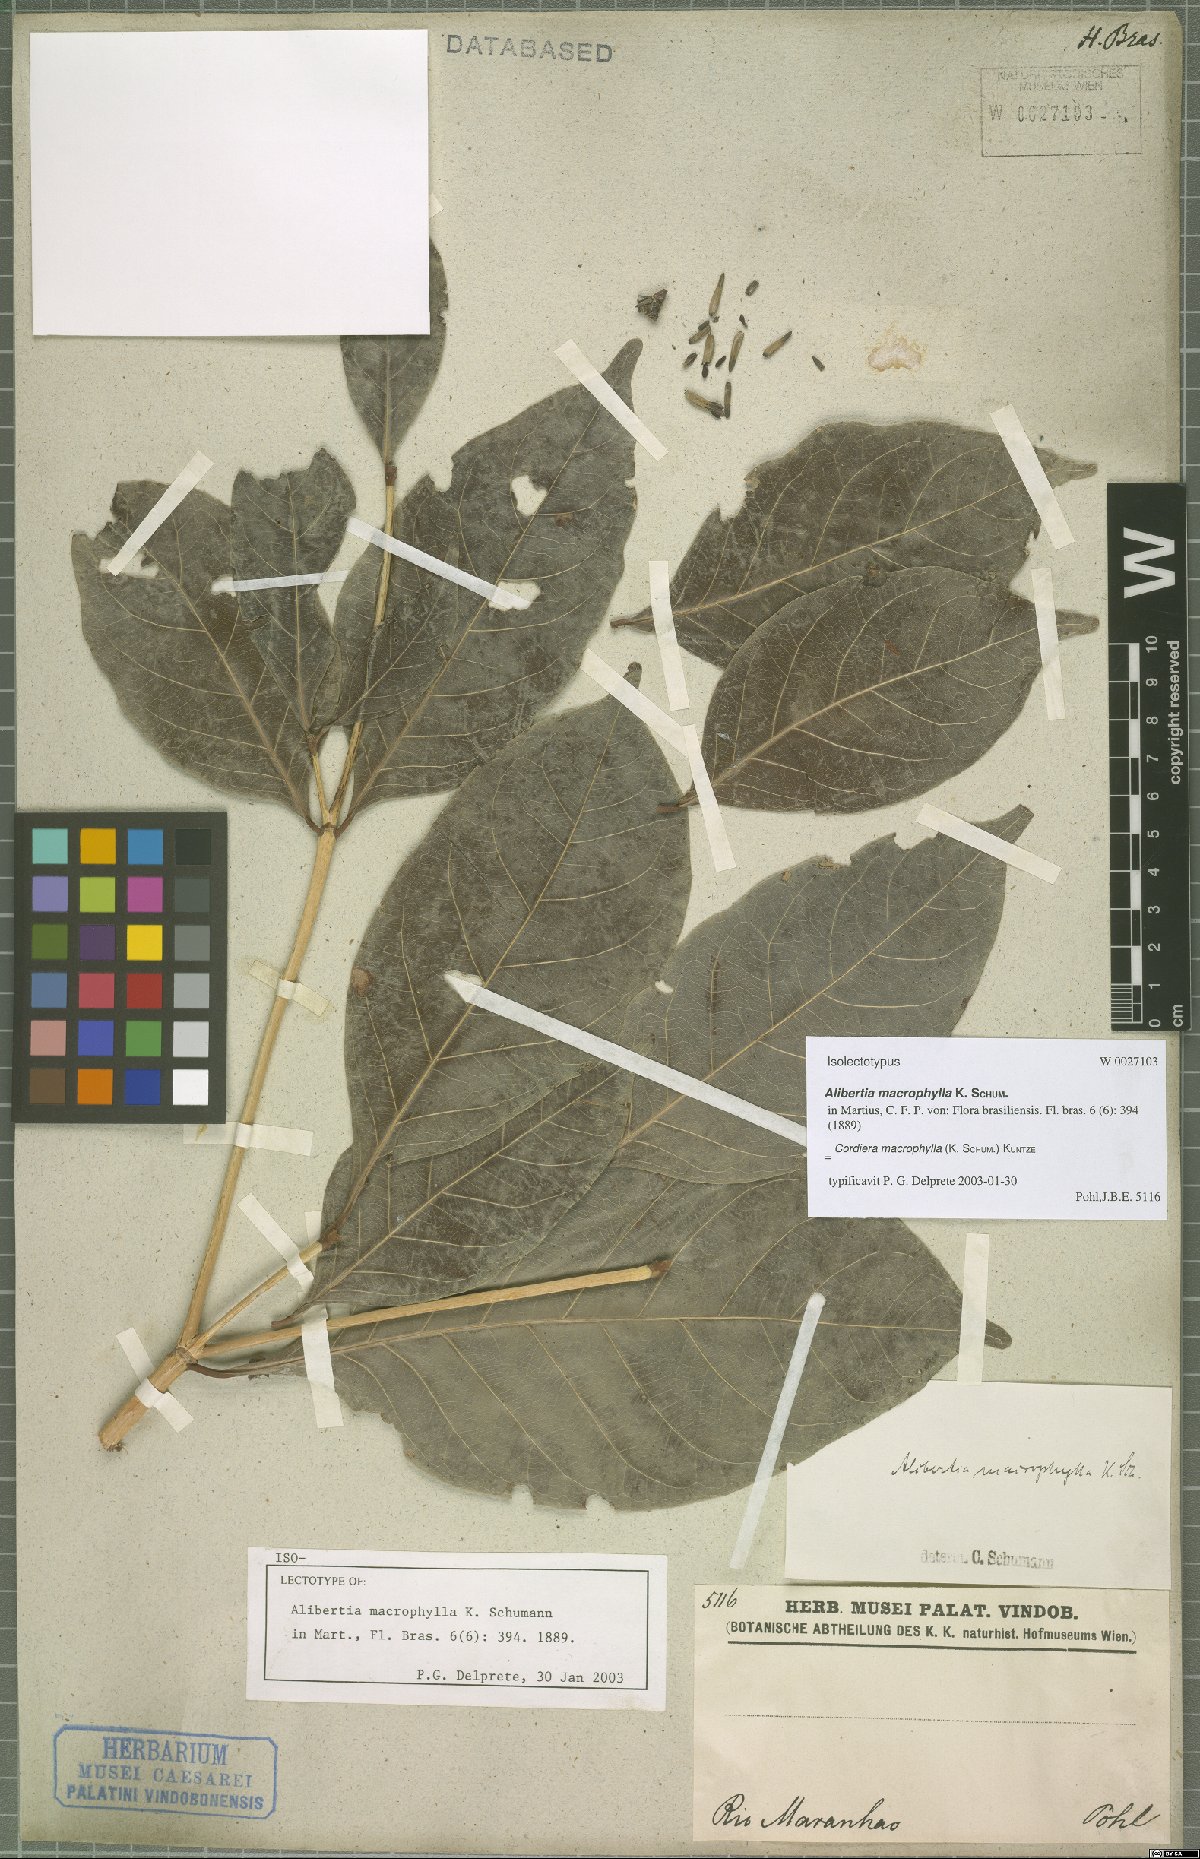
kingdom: Plantae
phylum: Tracheophyta
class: Magnoliopsida
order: Gentianales
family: Rubiaceae
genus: Cordiera
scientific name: Cordiera macrophylla
